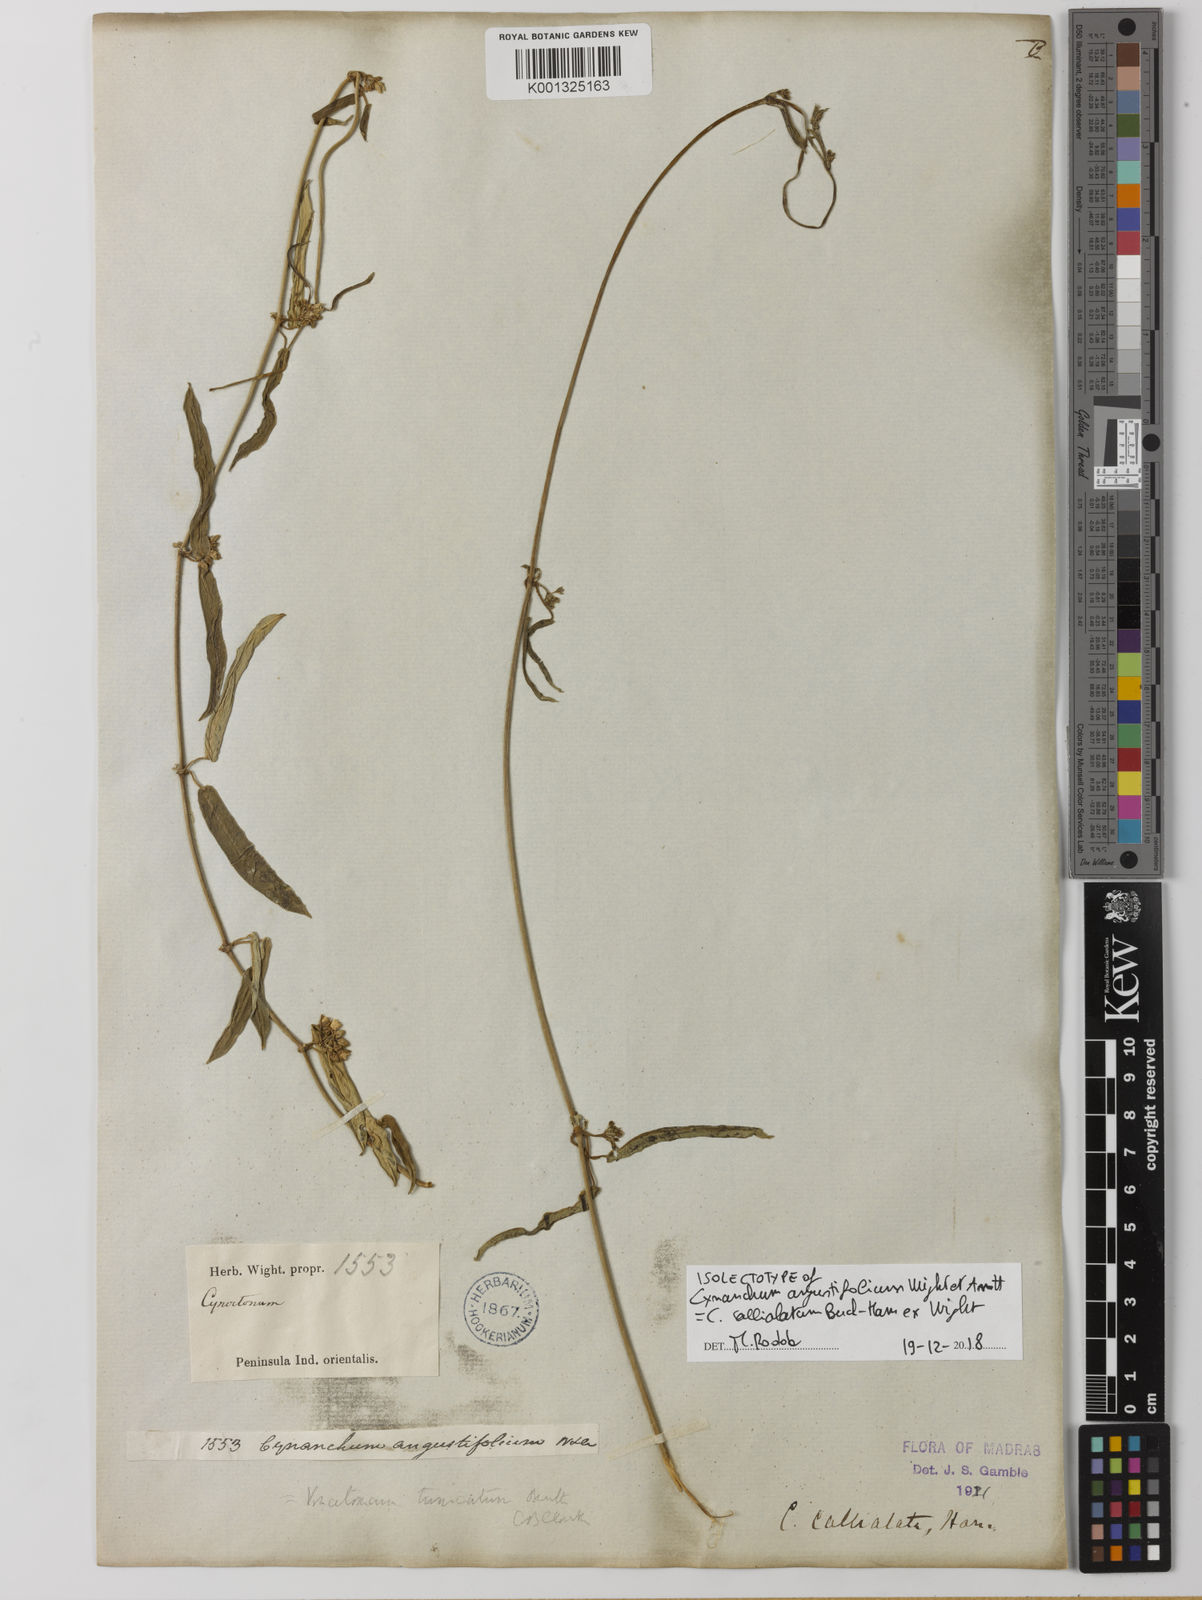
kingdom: Plantae
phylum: Tracheophyta
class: Magnoliopsida
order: Gentianales
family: Apocynaceae
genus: Cynanchum
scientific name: Cynanchum tunicatum
